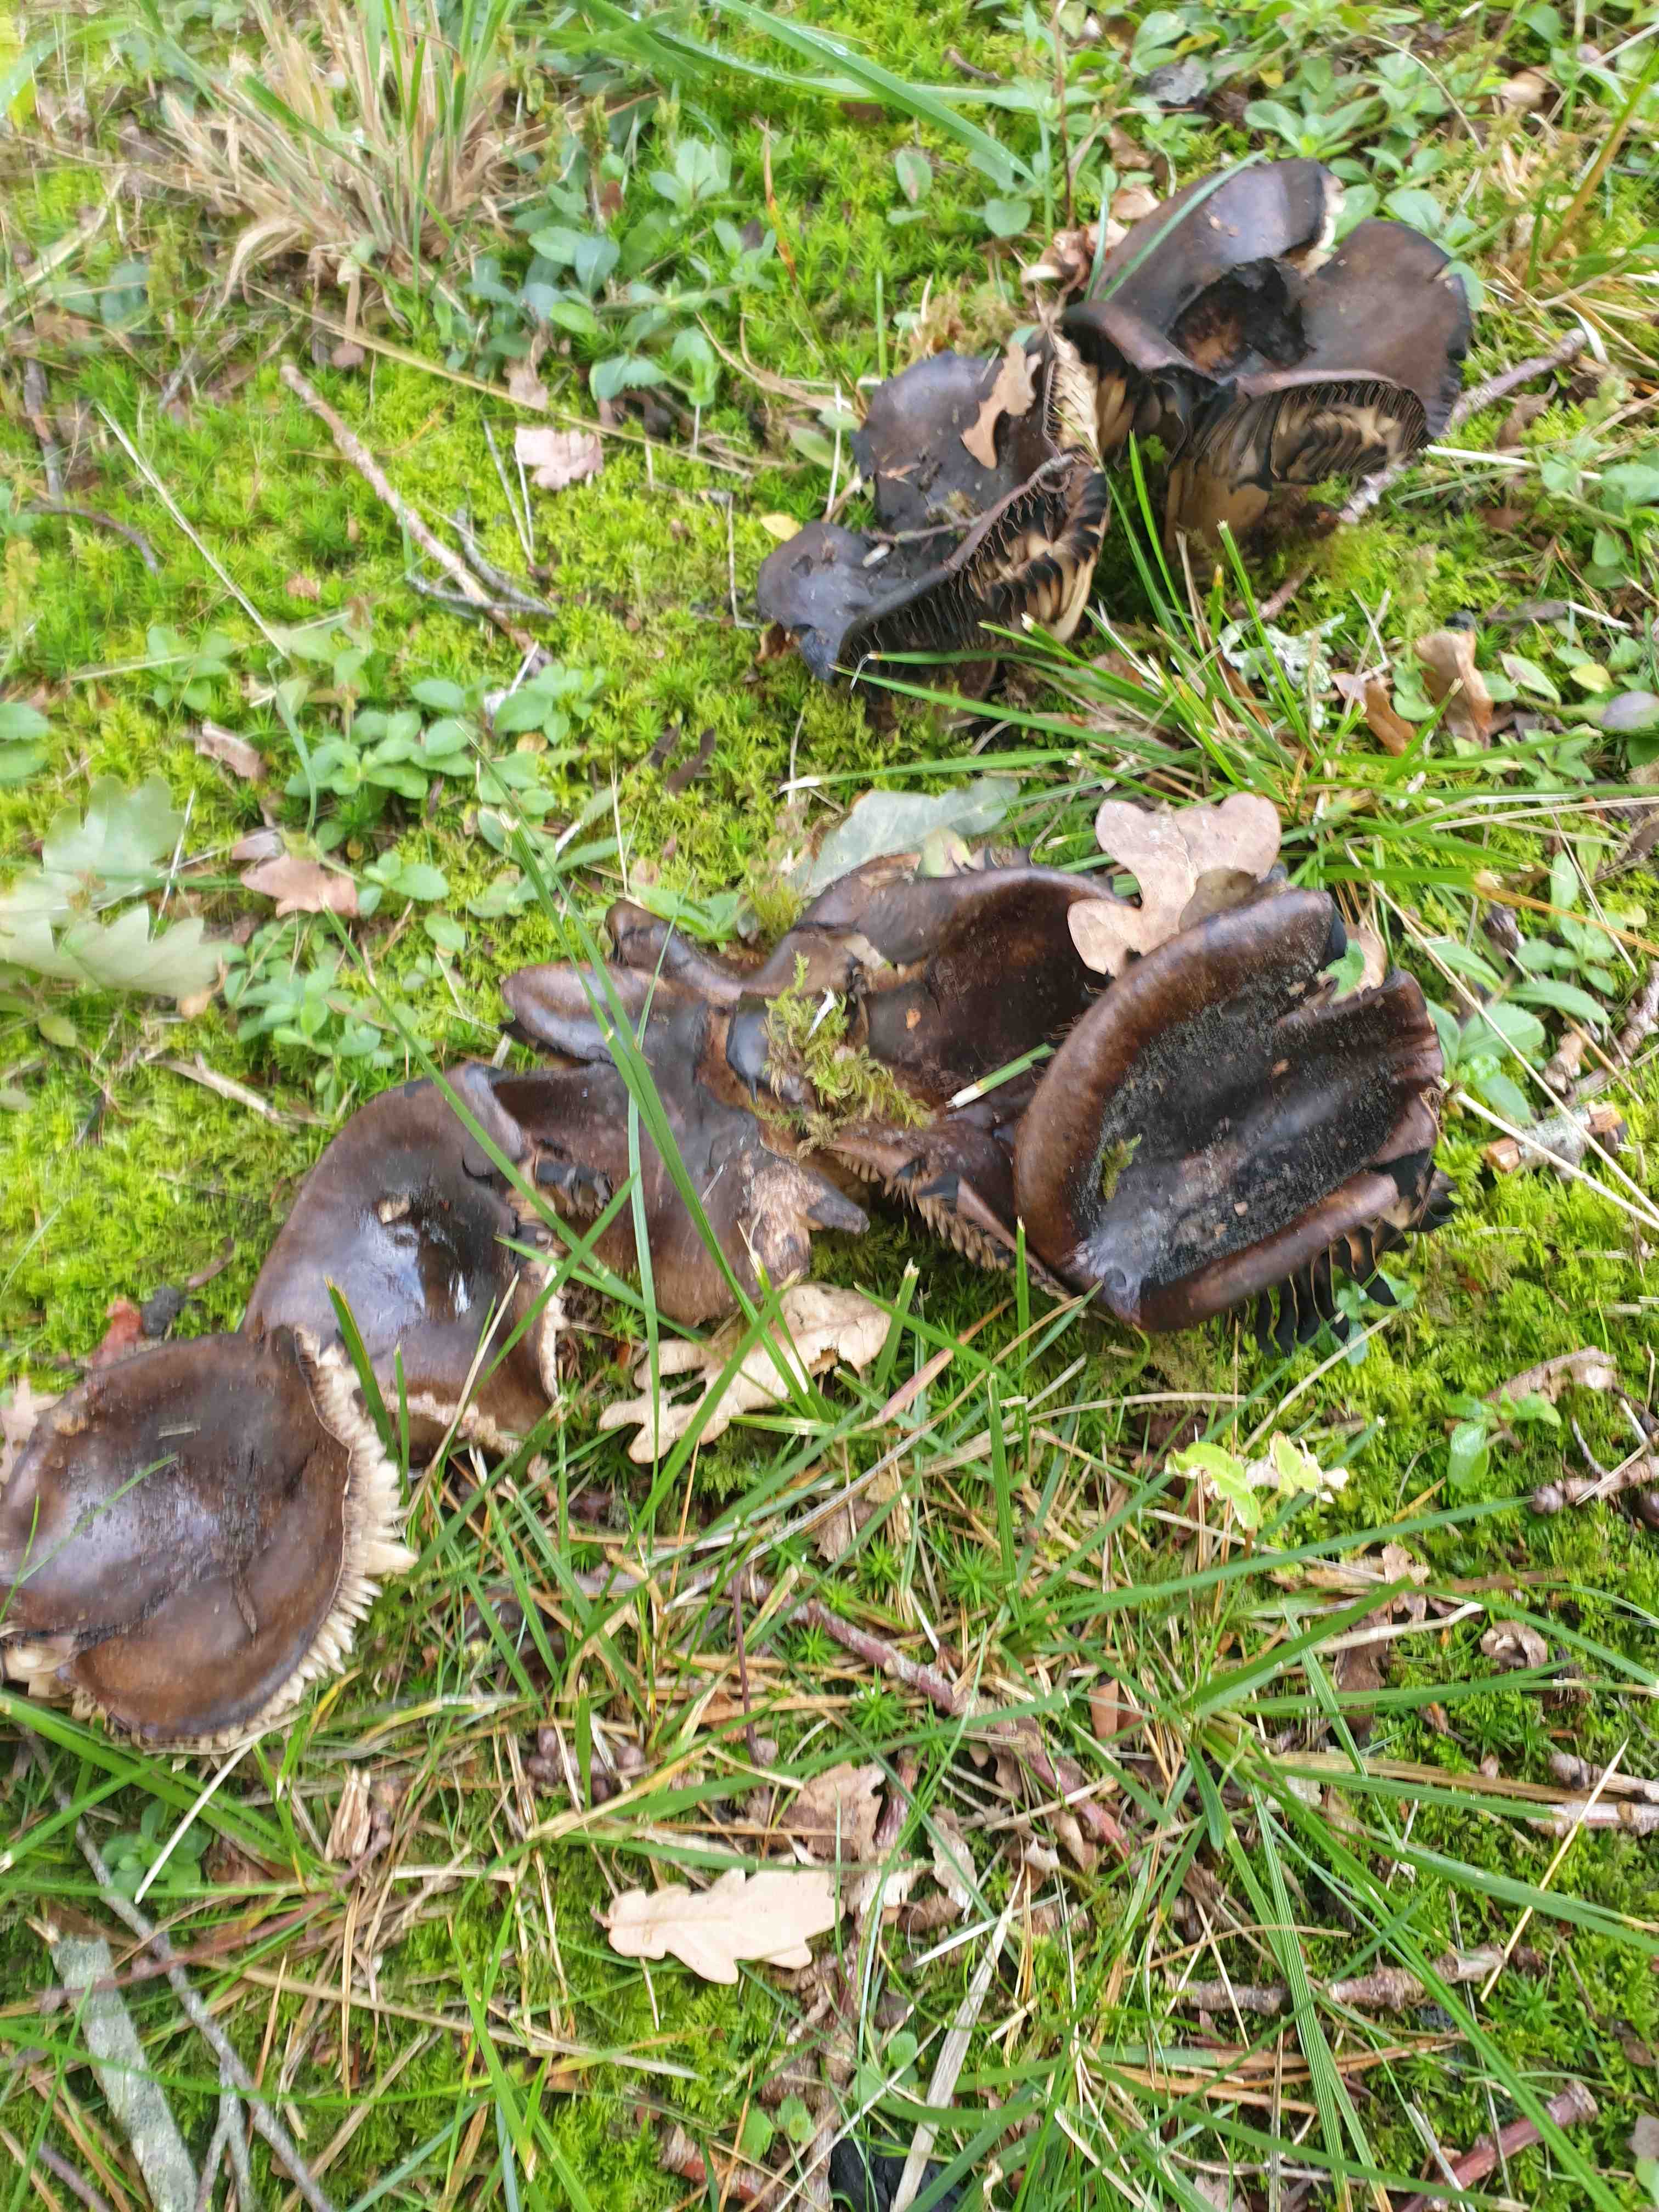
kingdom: Fungi
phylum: Basidiomycota
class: Agaricomycetes
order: Russulales
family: Russulaceae
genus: Russula
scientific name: Russula adusta
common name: sværtende skørhat
